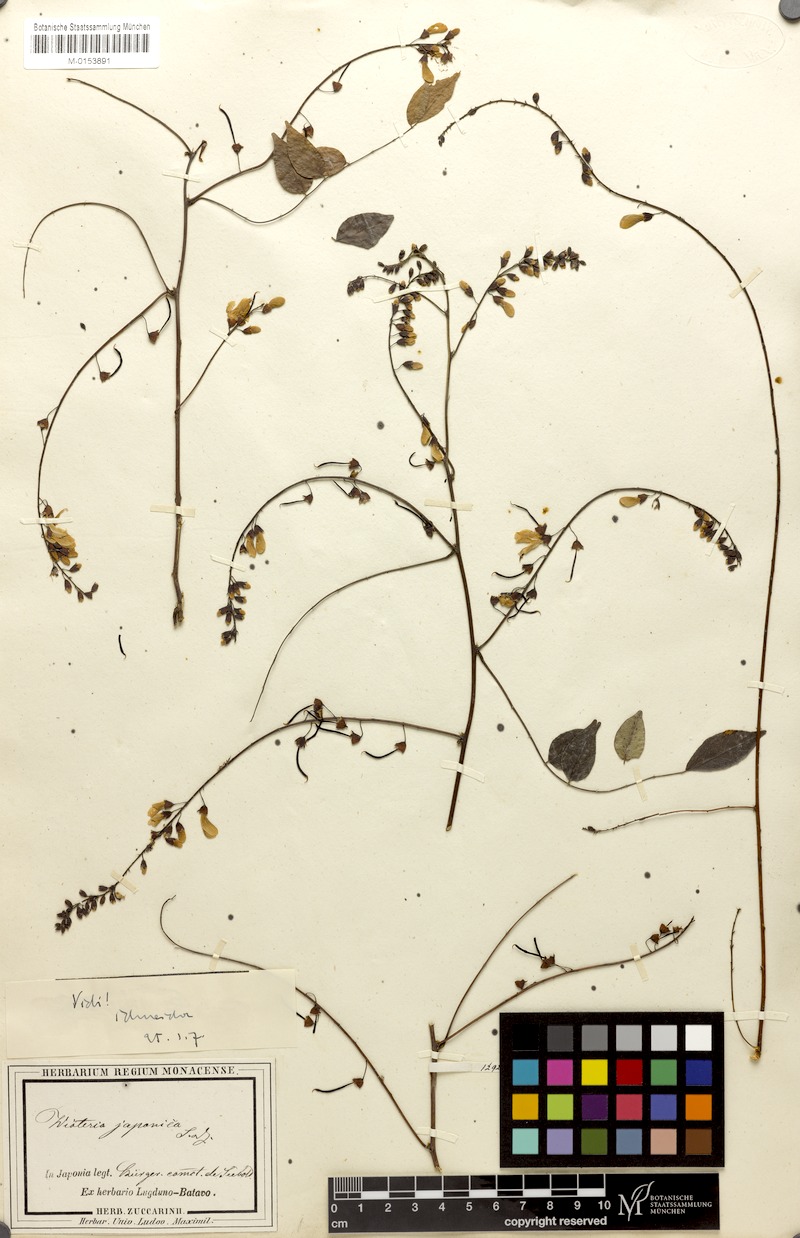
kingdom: Plantae
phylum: Tracheophyta
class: Magnoliopsida
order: Fabales
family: Fabaceae
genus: Wisteriopsis
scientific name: Wisteriopsis japonica
